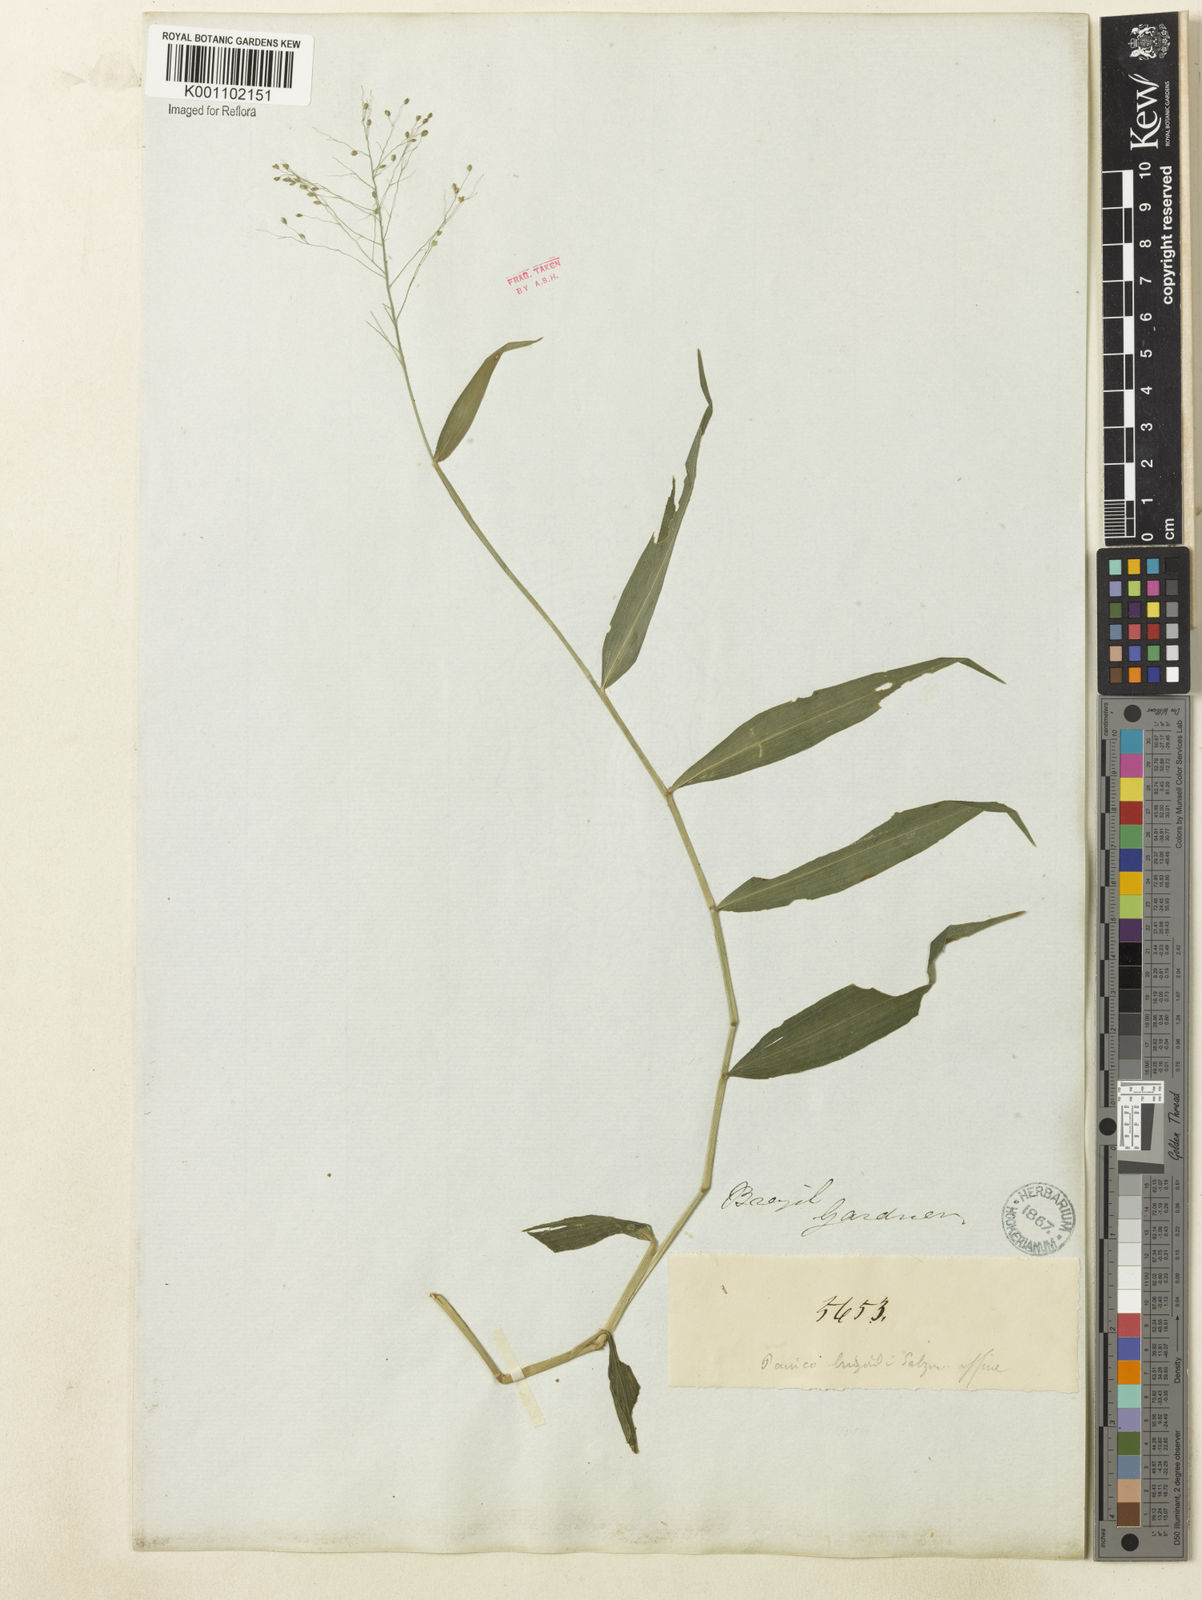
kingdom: Plantae
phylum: Tracheophyta
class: Liliopsida
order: Poales
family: Poaceae
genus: Dichanthelium
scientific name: Dichanthelium hebotes
